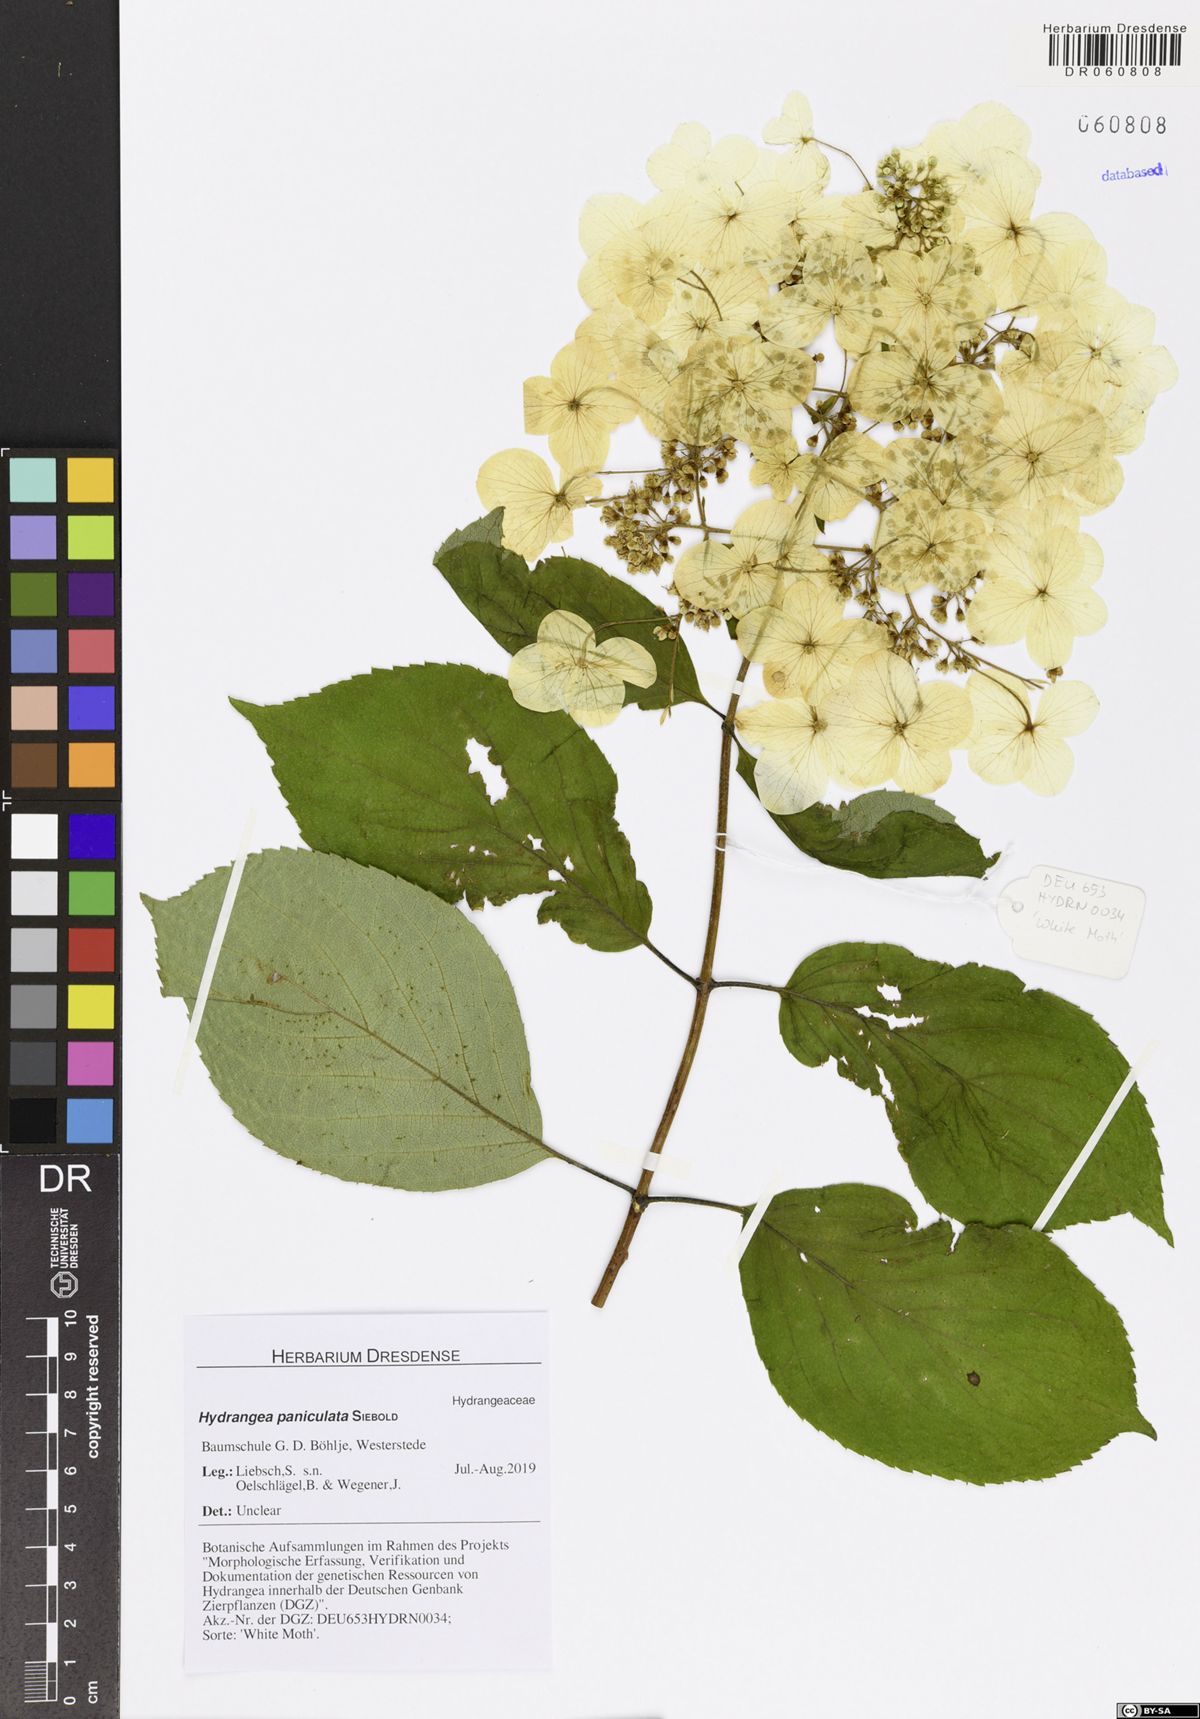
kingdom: Plantae
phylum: Tracheophyta
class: Magnoliopsida
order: Cornales
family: Hydrangeaceae
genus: Hydrangea
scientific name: Hydrangea paniculata
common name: Panicled hydrangea
